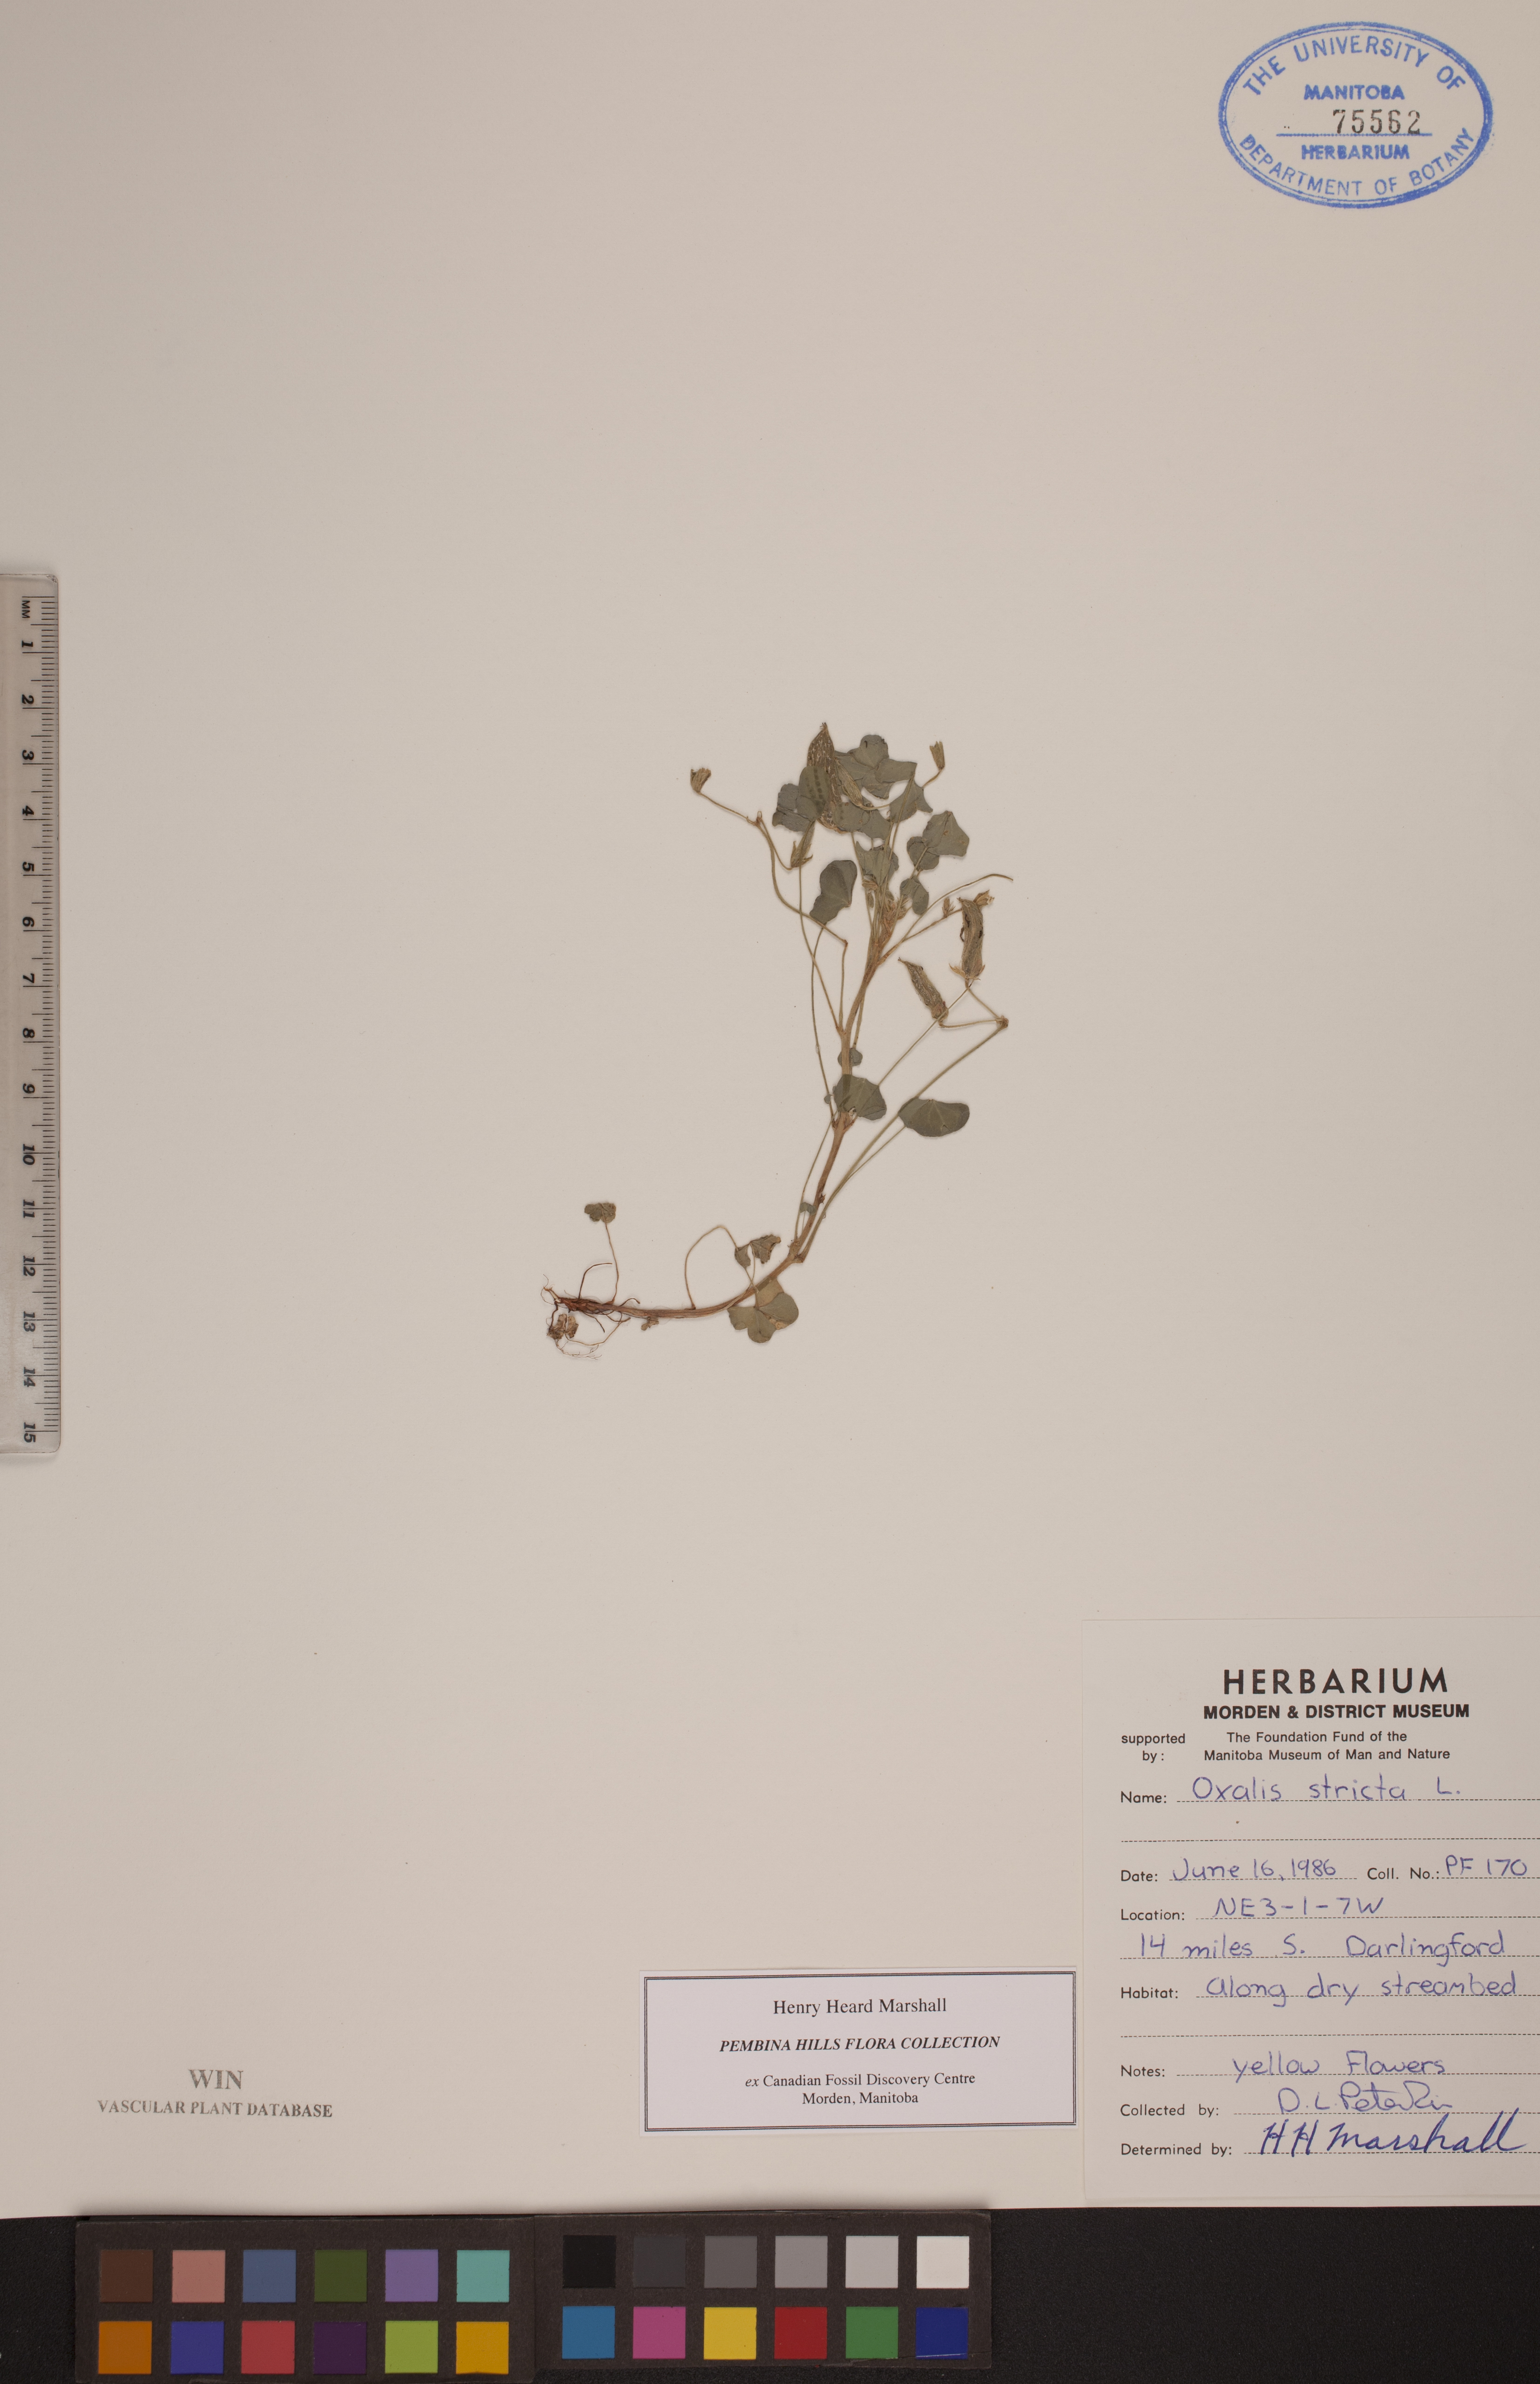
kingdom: Plantae
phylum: Tracheophyta
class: Magnoliopsida
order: Oxalidales
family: Oxalidaceae
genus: Oxalis
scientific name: Oxalis stricta
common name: Upright yellow-sorrel
